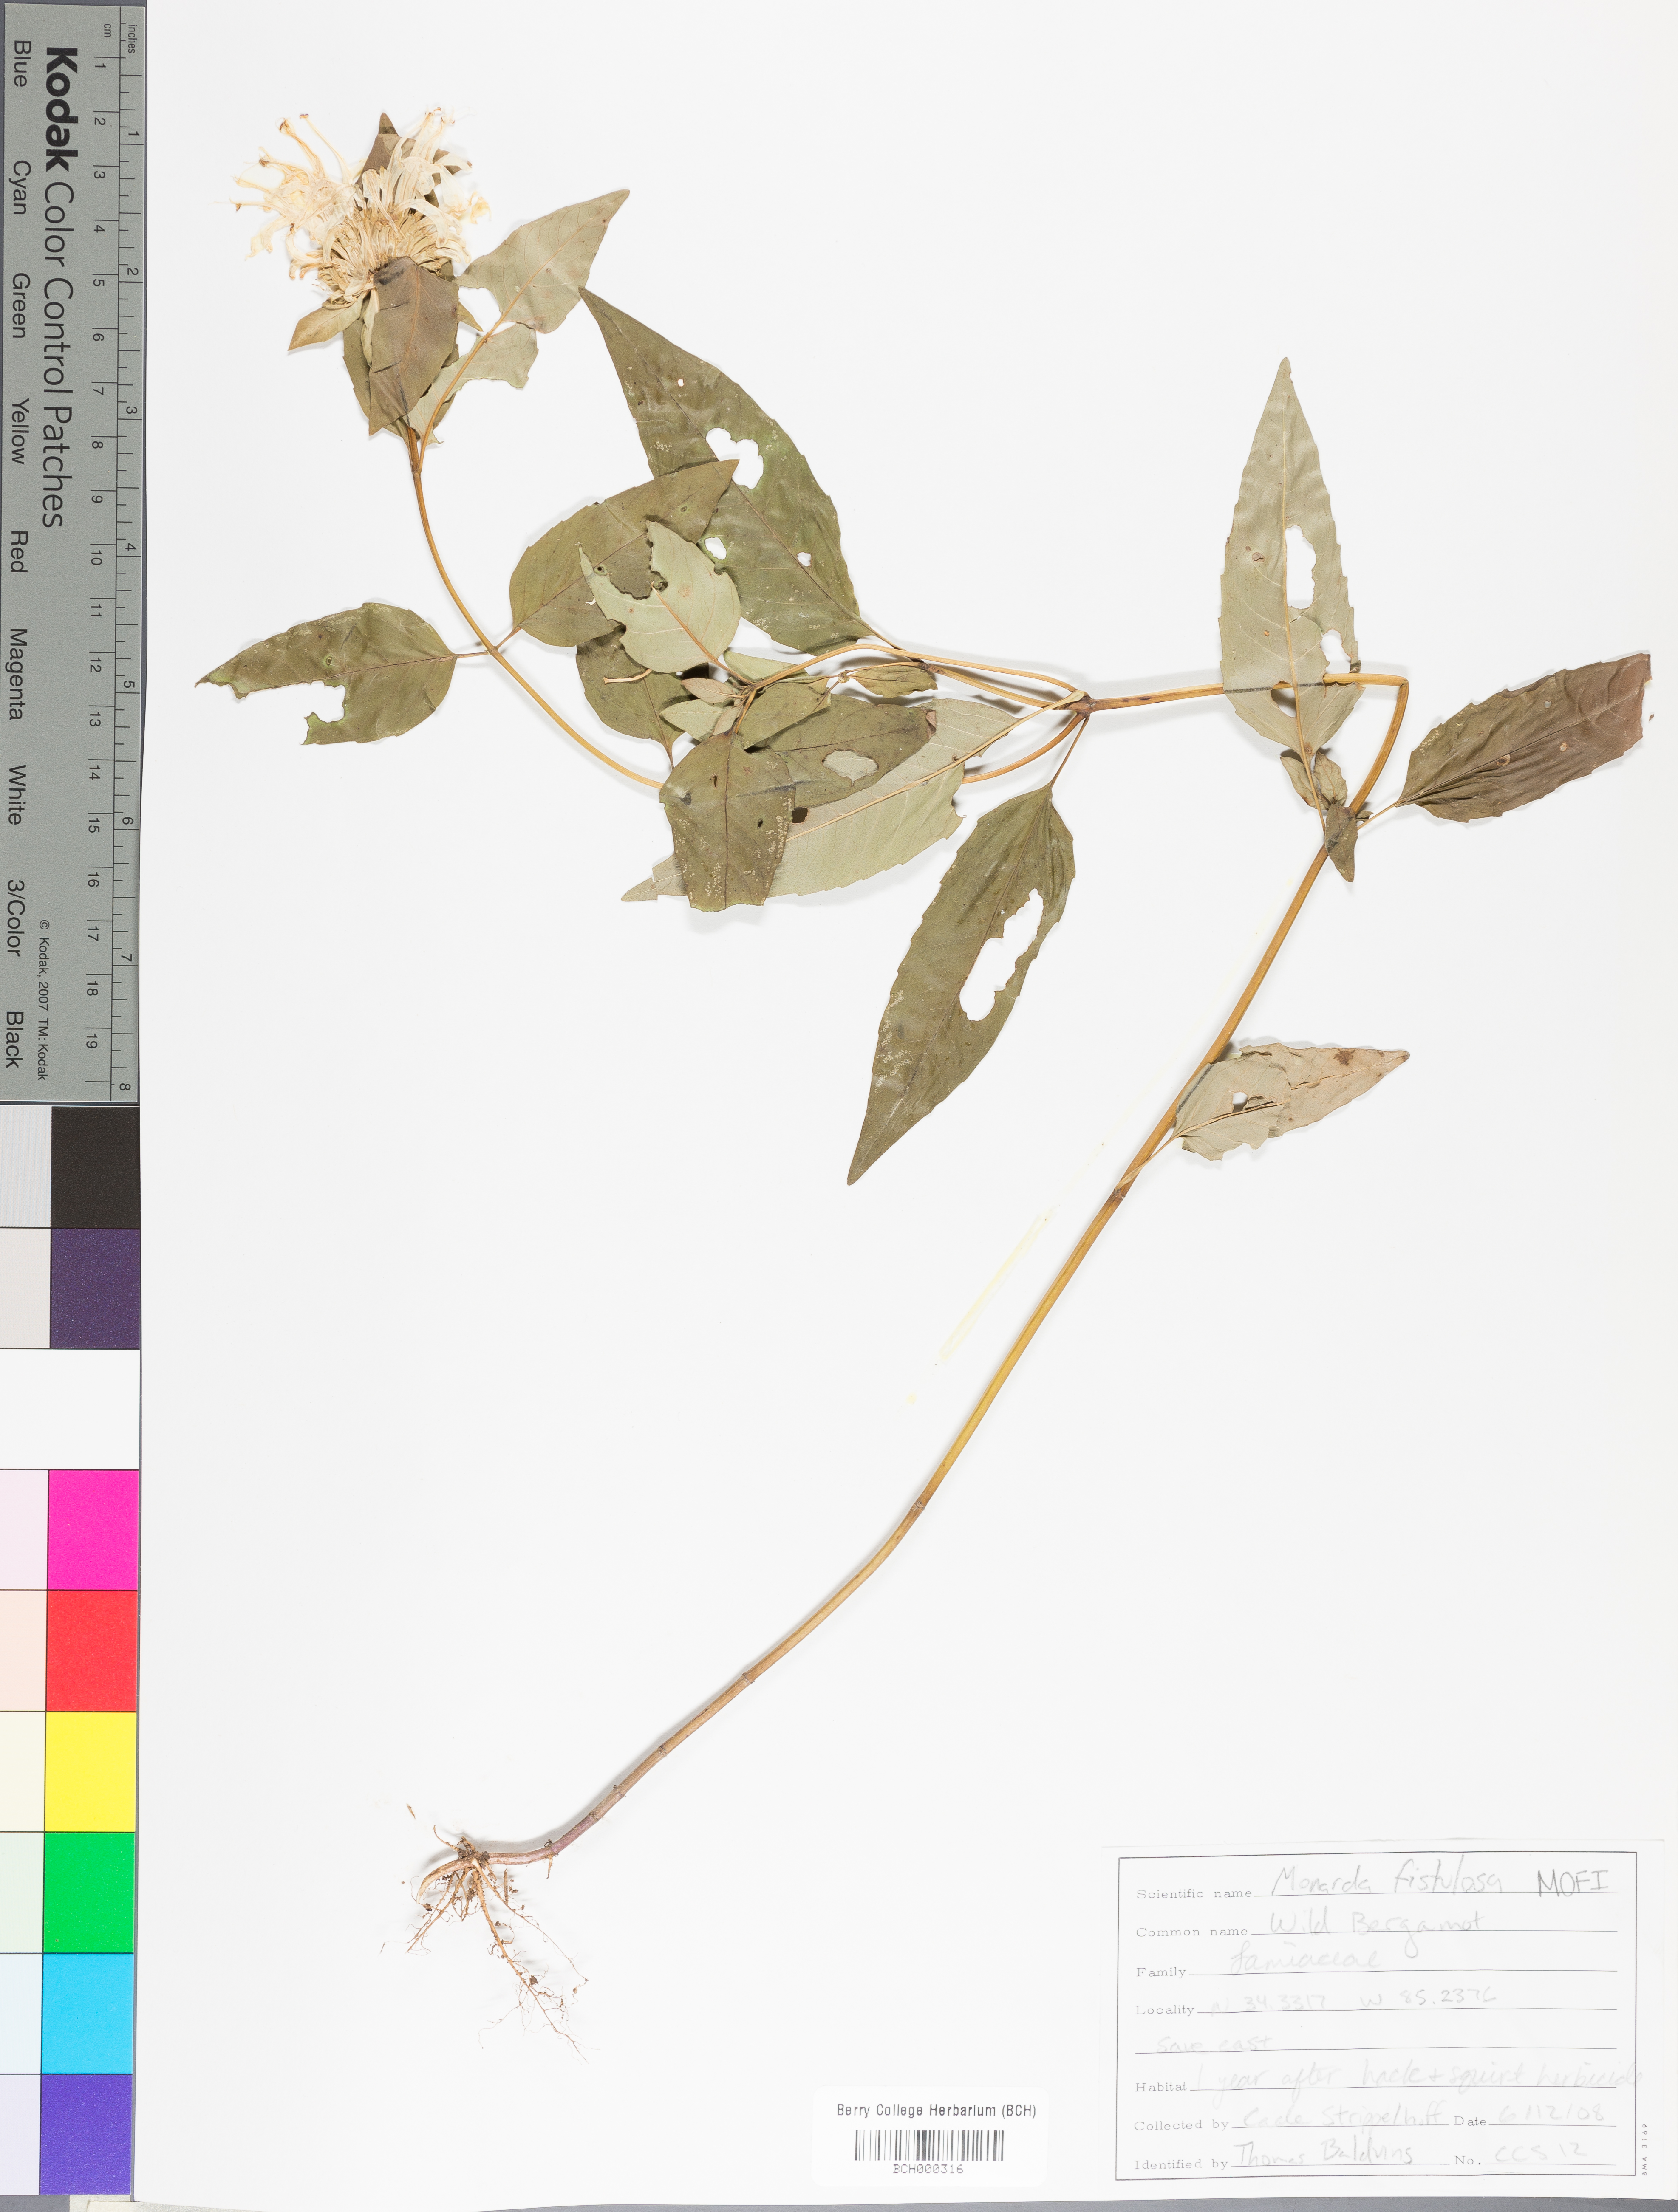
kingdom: Plantae
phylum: Tracheophyta
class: Magnoliopsida
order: Lamiales
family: Lamiaceae
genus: Monarda
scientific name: Monarda fistulosa
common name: Purple beebalm
